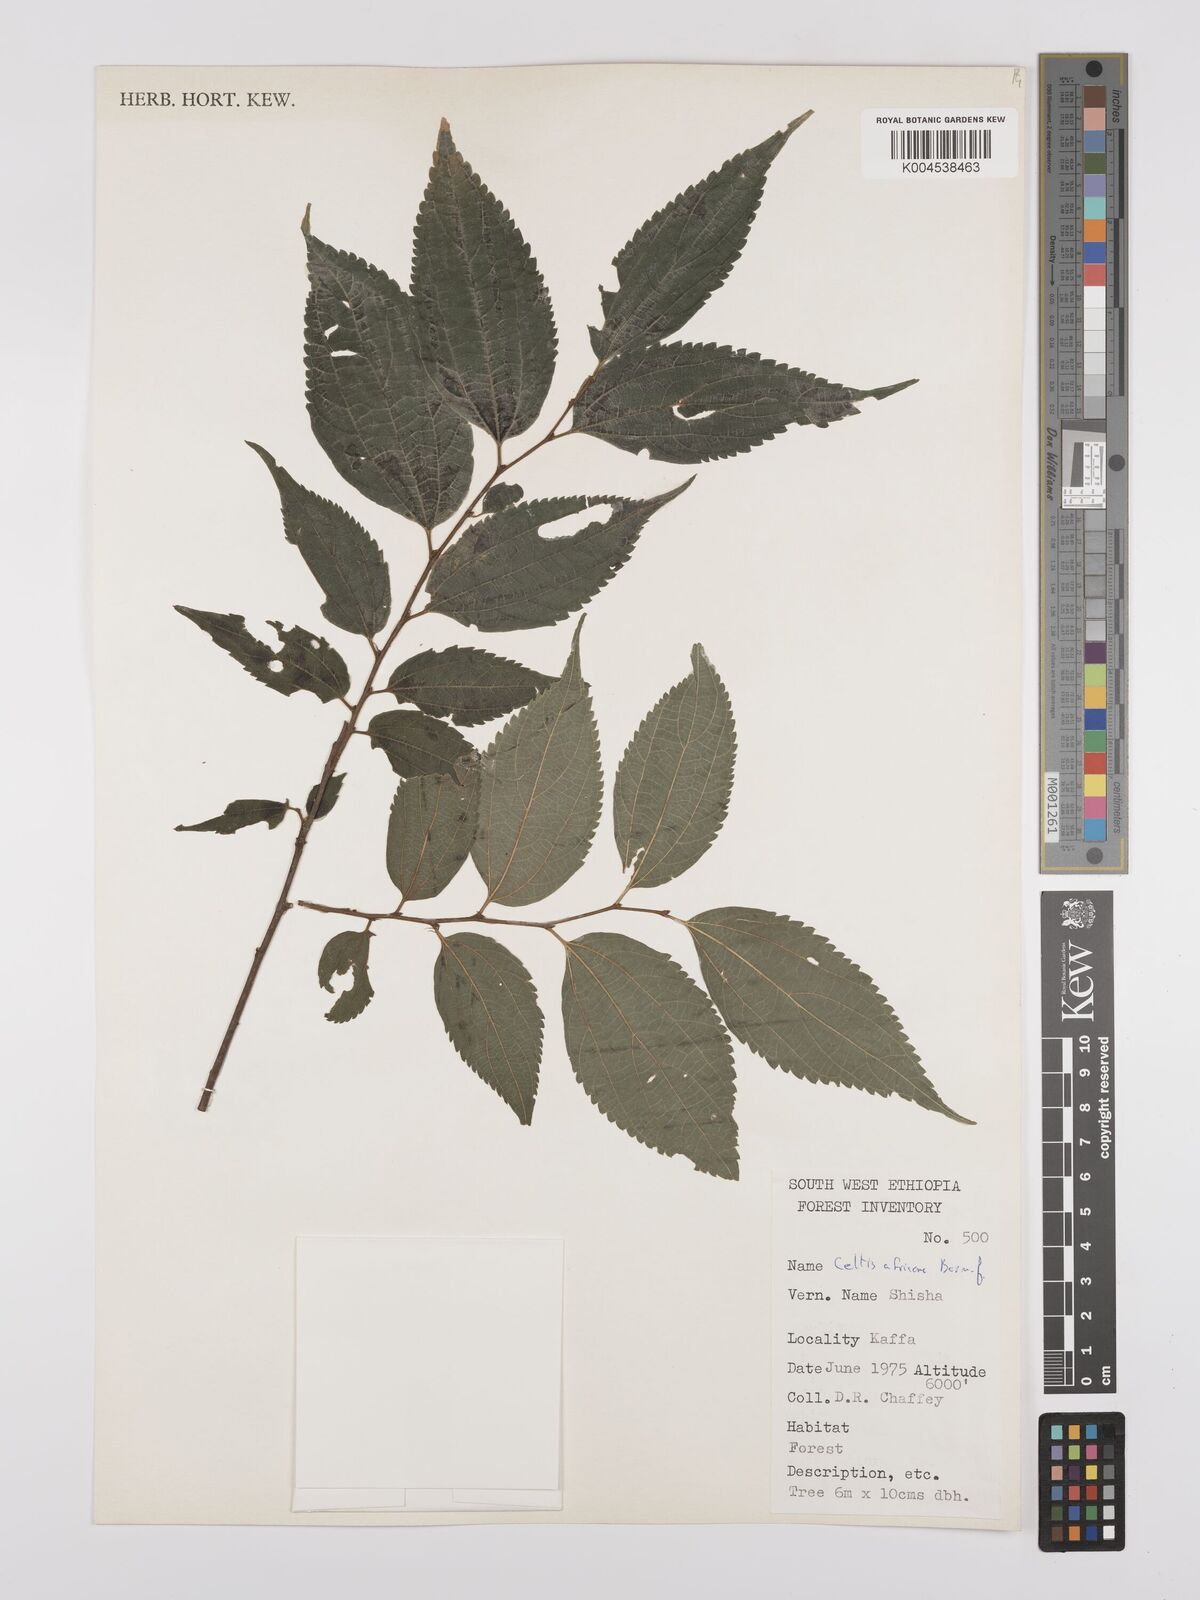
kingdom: Plantae
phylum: Tracheophyta
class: Magnoliopsida
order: Rosales
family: Cannabaceae
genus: Celtis
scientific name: Celtis africana
